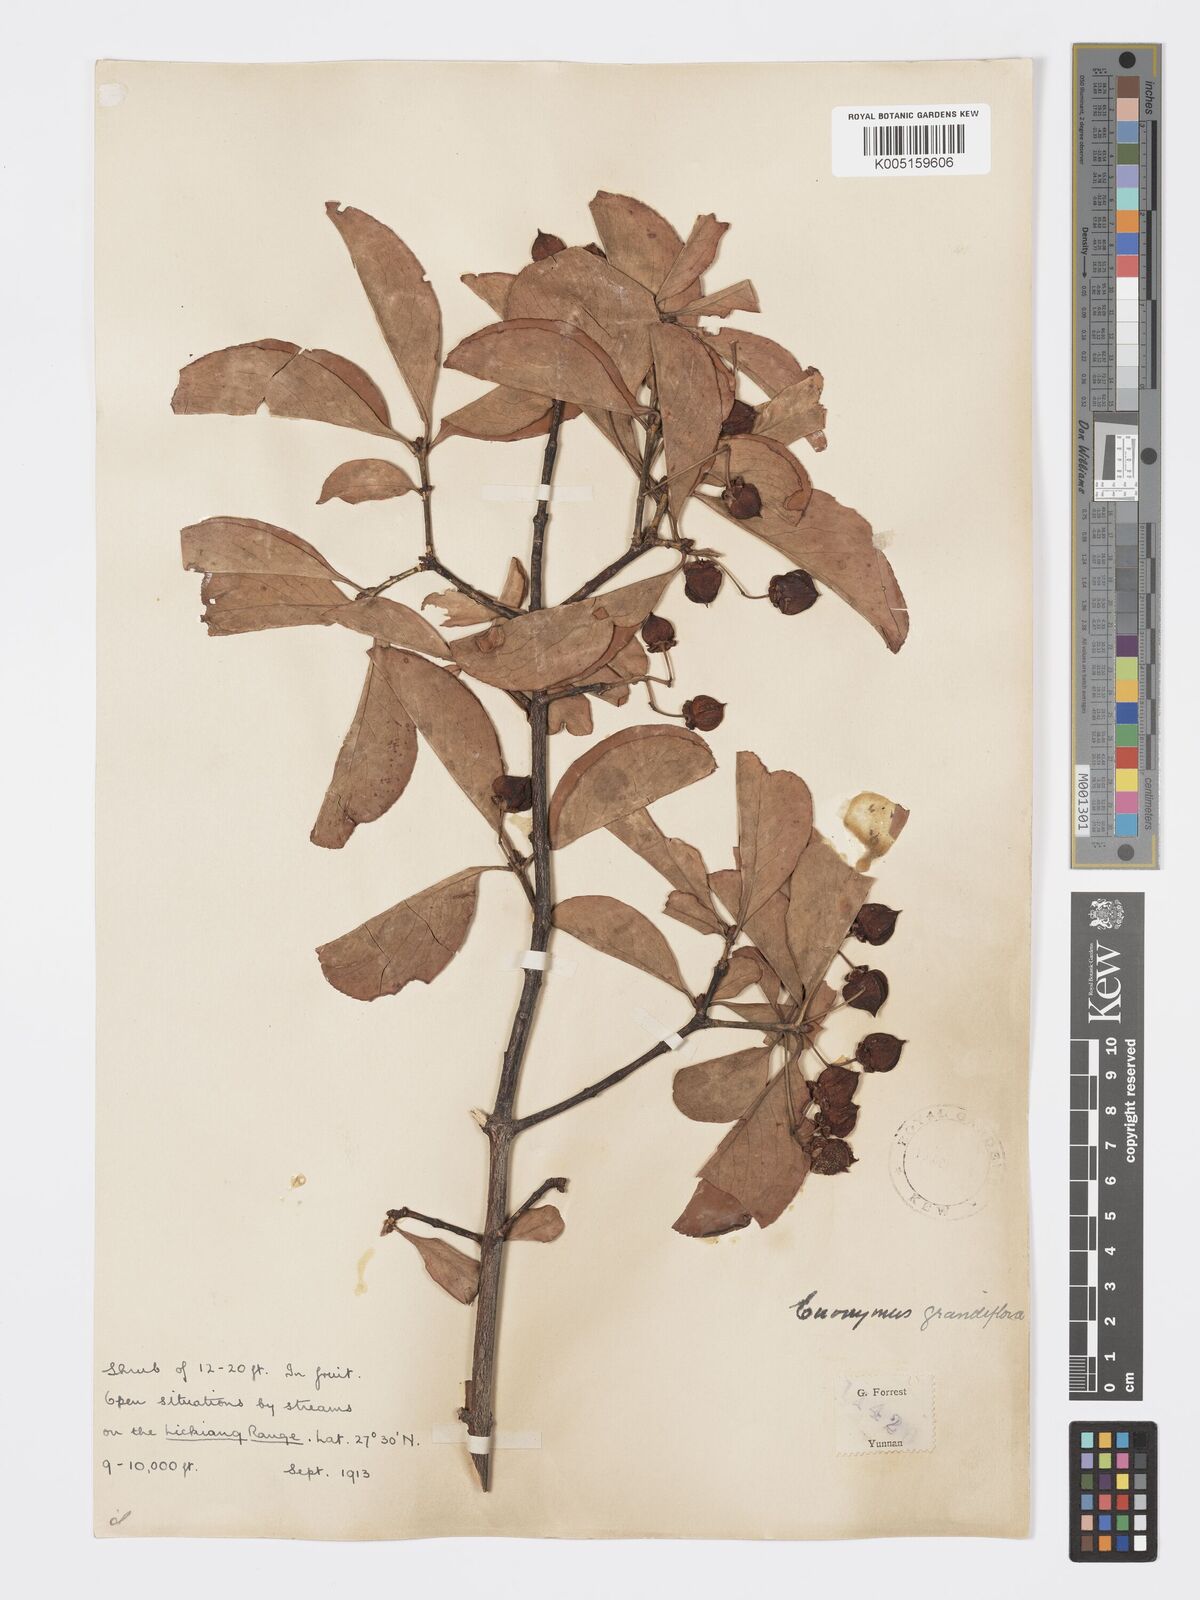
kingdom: Plantae
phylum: Tracheophyta
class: Magnoliopsida
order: Celastrales
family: Celastraceae
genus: Euonymus
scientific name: Euonymus grandiflorus
